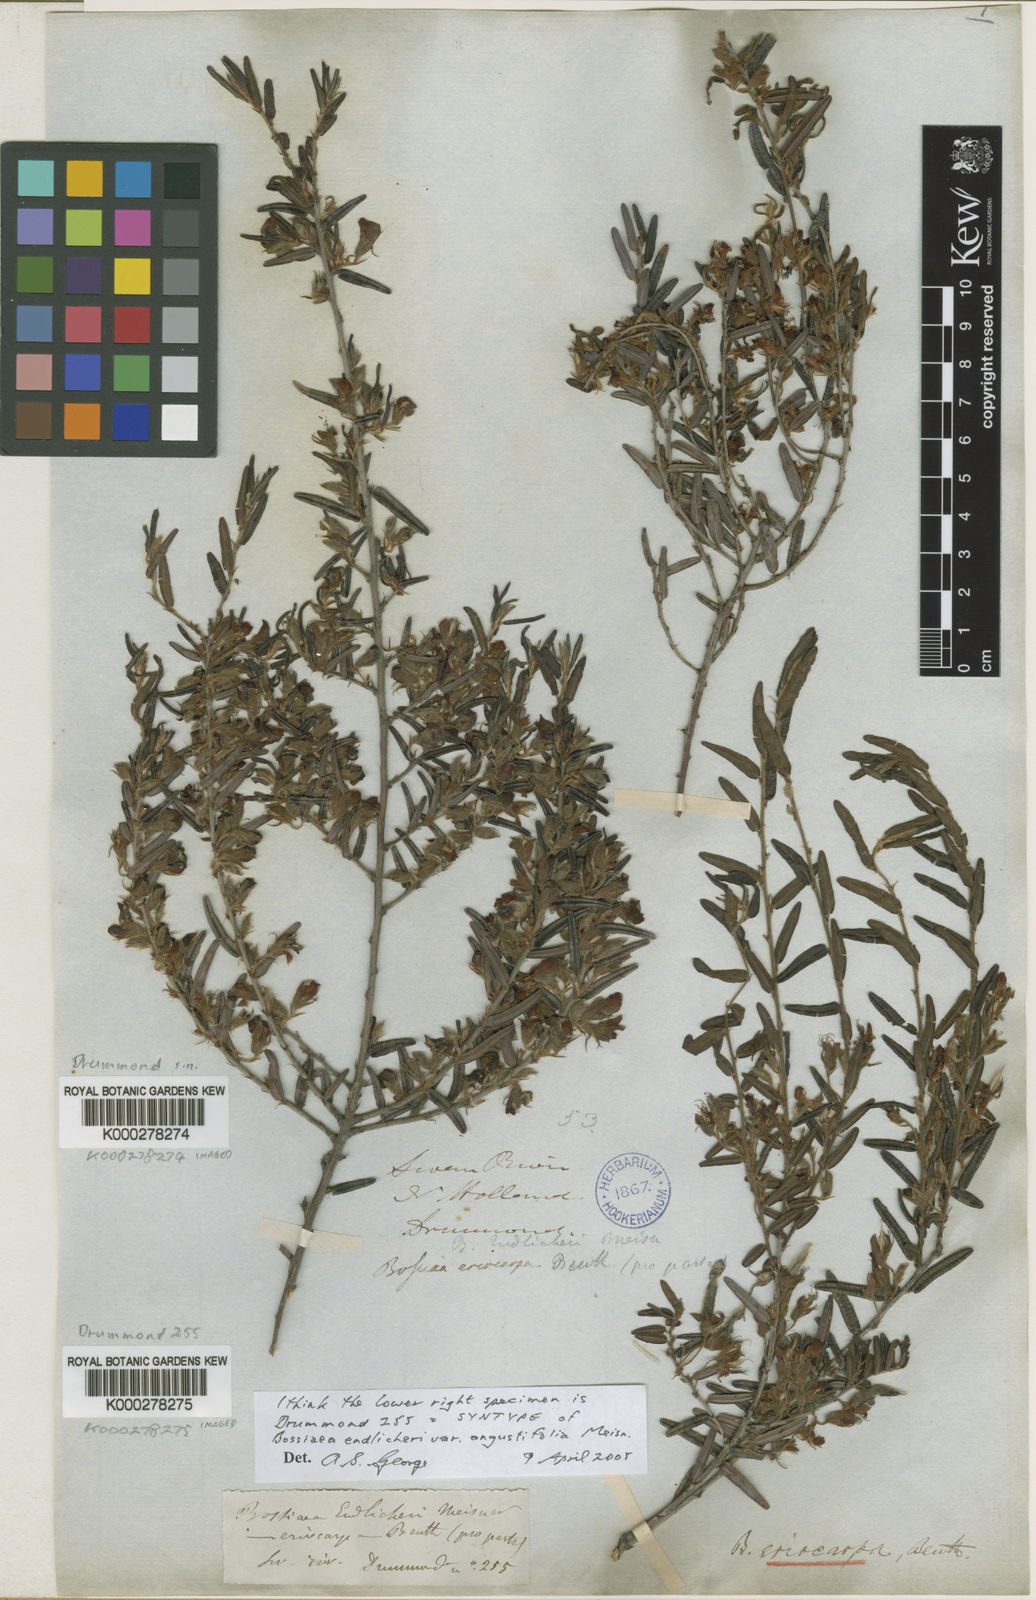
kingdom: Plantae
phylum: Tracheophyta
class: Magnoliopsida
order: Fabales
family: Fabaceae
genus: Bossiaea
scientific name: Bossiaea eriocarpa
